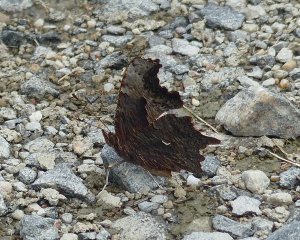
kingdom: Animalia
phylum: Arthropoda
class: Insecta
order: Lepidoptera
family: Nymphalidae
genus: Polygonia
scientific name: Polygonia progne
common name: Gray Comma
